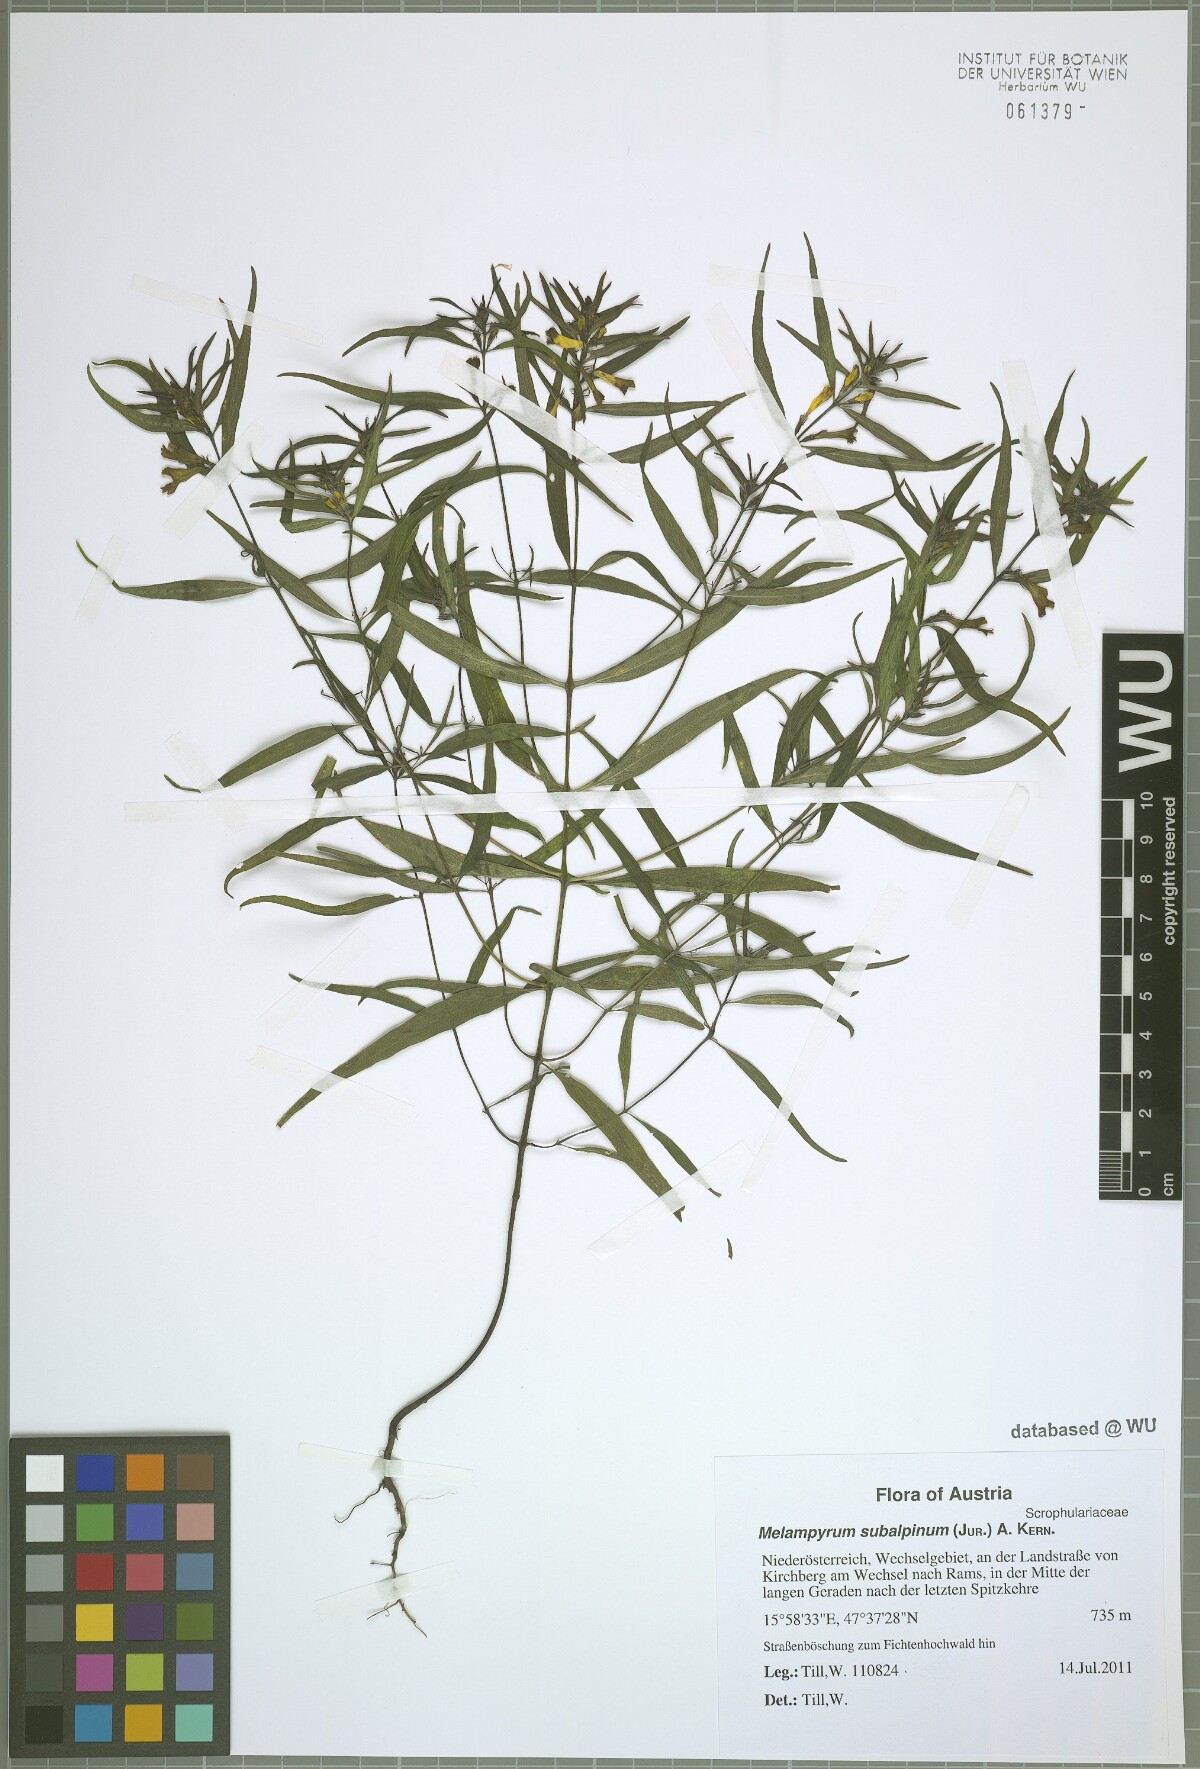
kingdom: Plantae
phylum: Tracheophyta
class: Magnoliopsida
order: Lamiales
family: Orobanchaceae
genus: Melampyrum
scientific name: Melampyrum subalpinum
